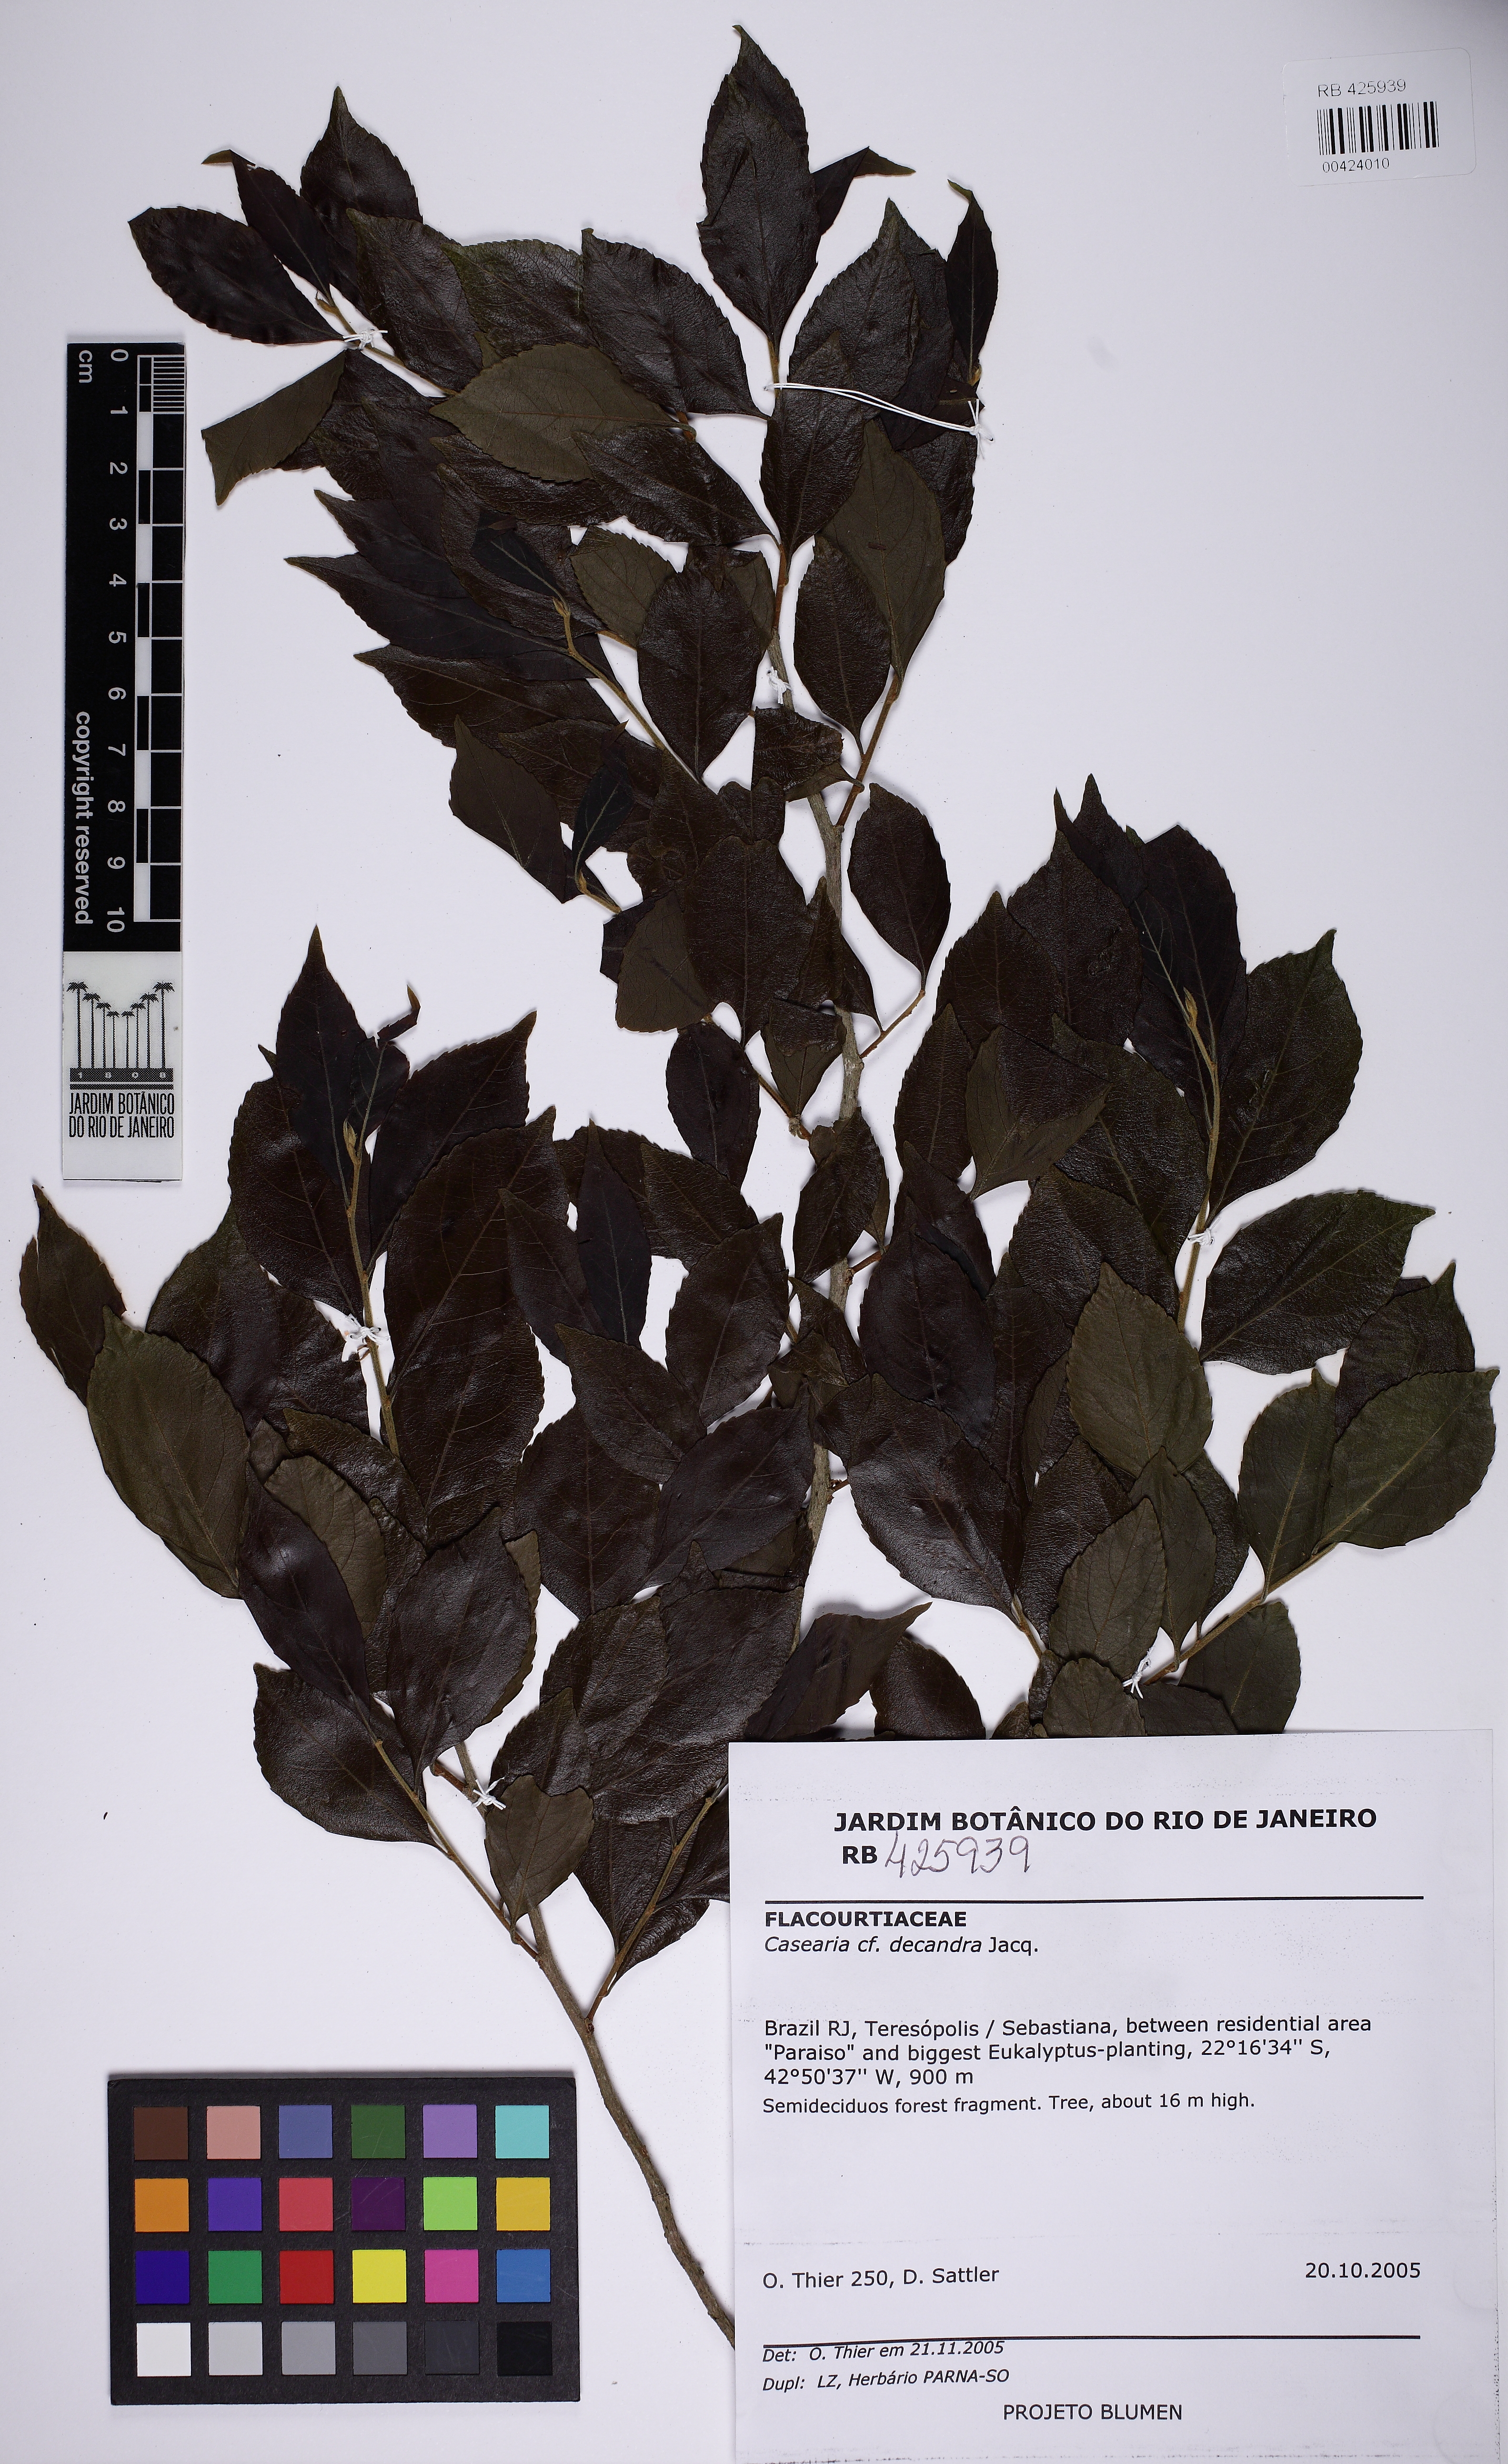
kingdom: Plantae
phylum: Tracheophyta
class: Magnoliopsida
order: Malpighiales
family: Salicaceae
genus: Casearia
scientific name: Casearia decandra
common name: Crack open
